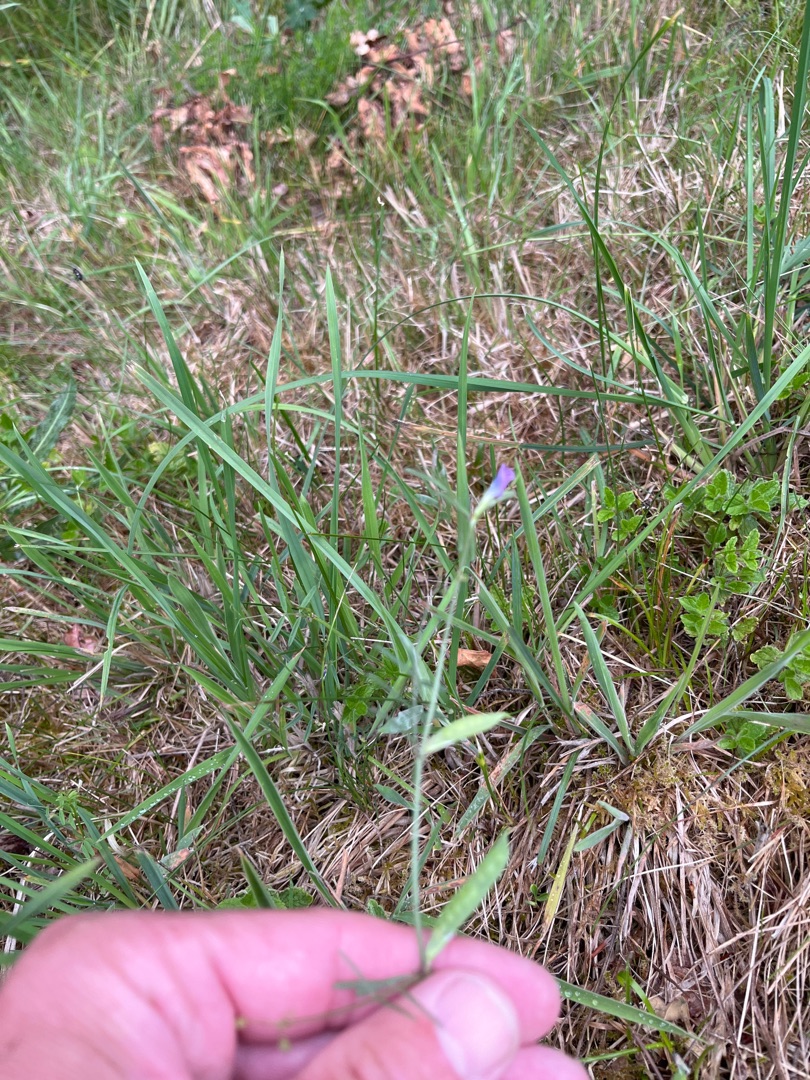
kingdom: Plantae
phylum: Tracheophyta
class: Magnoliopsida
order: Fabales
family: Fabaceae
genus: Vicia
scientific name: Vicia sativa
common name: Smalbladet vikke
